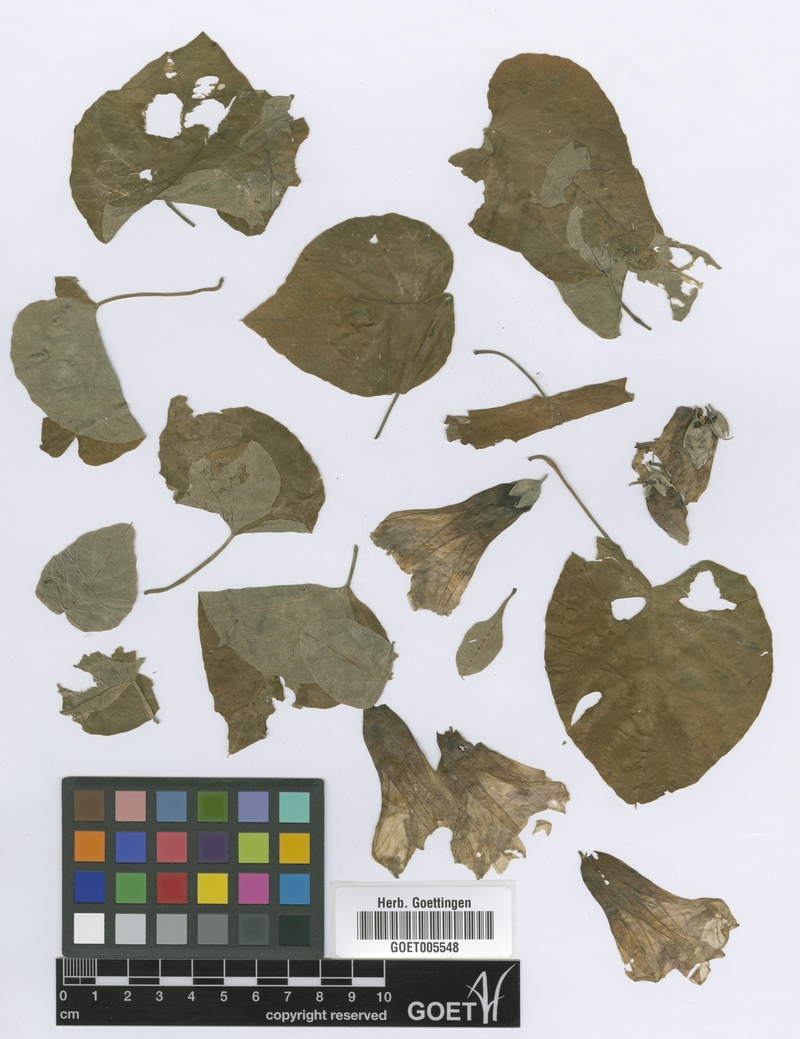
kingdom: Plantae
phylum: Tracheophyta
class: Magnoliopsida
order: Solanales
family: Convolvulaceae
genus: Ipomoea
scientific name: Ipomoea argentinica
